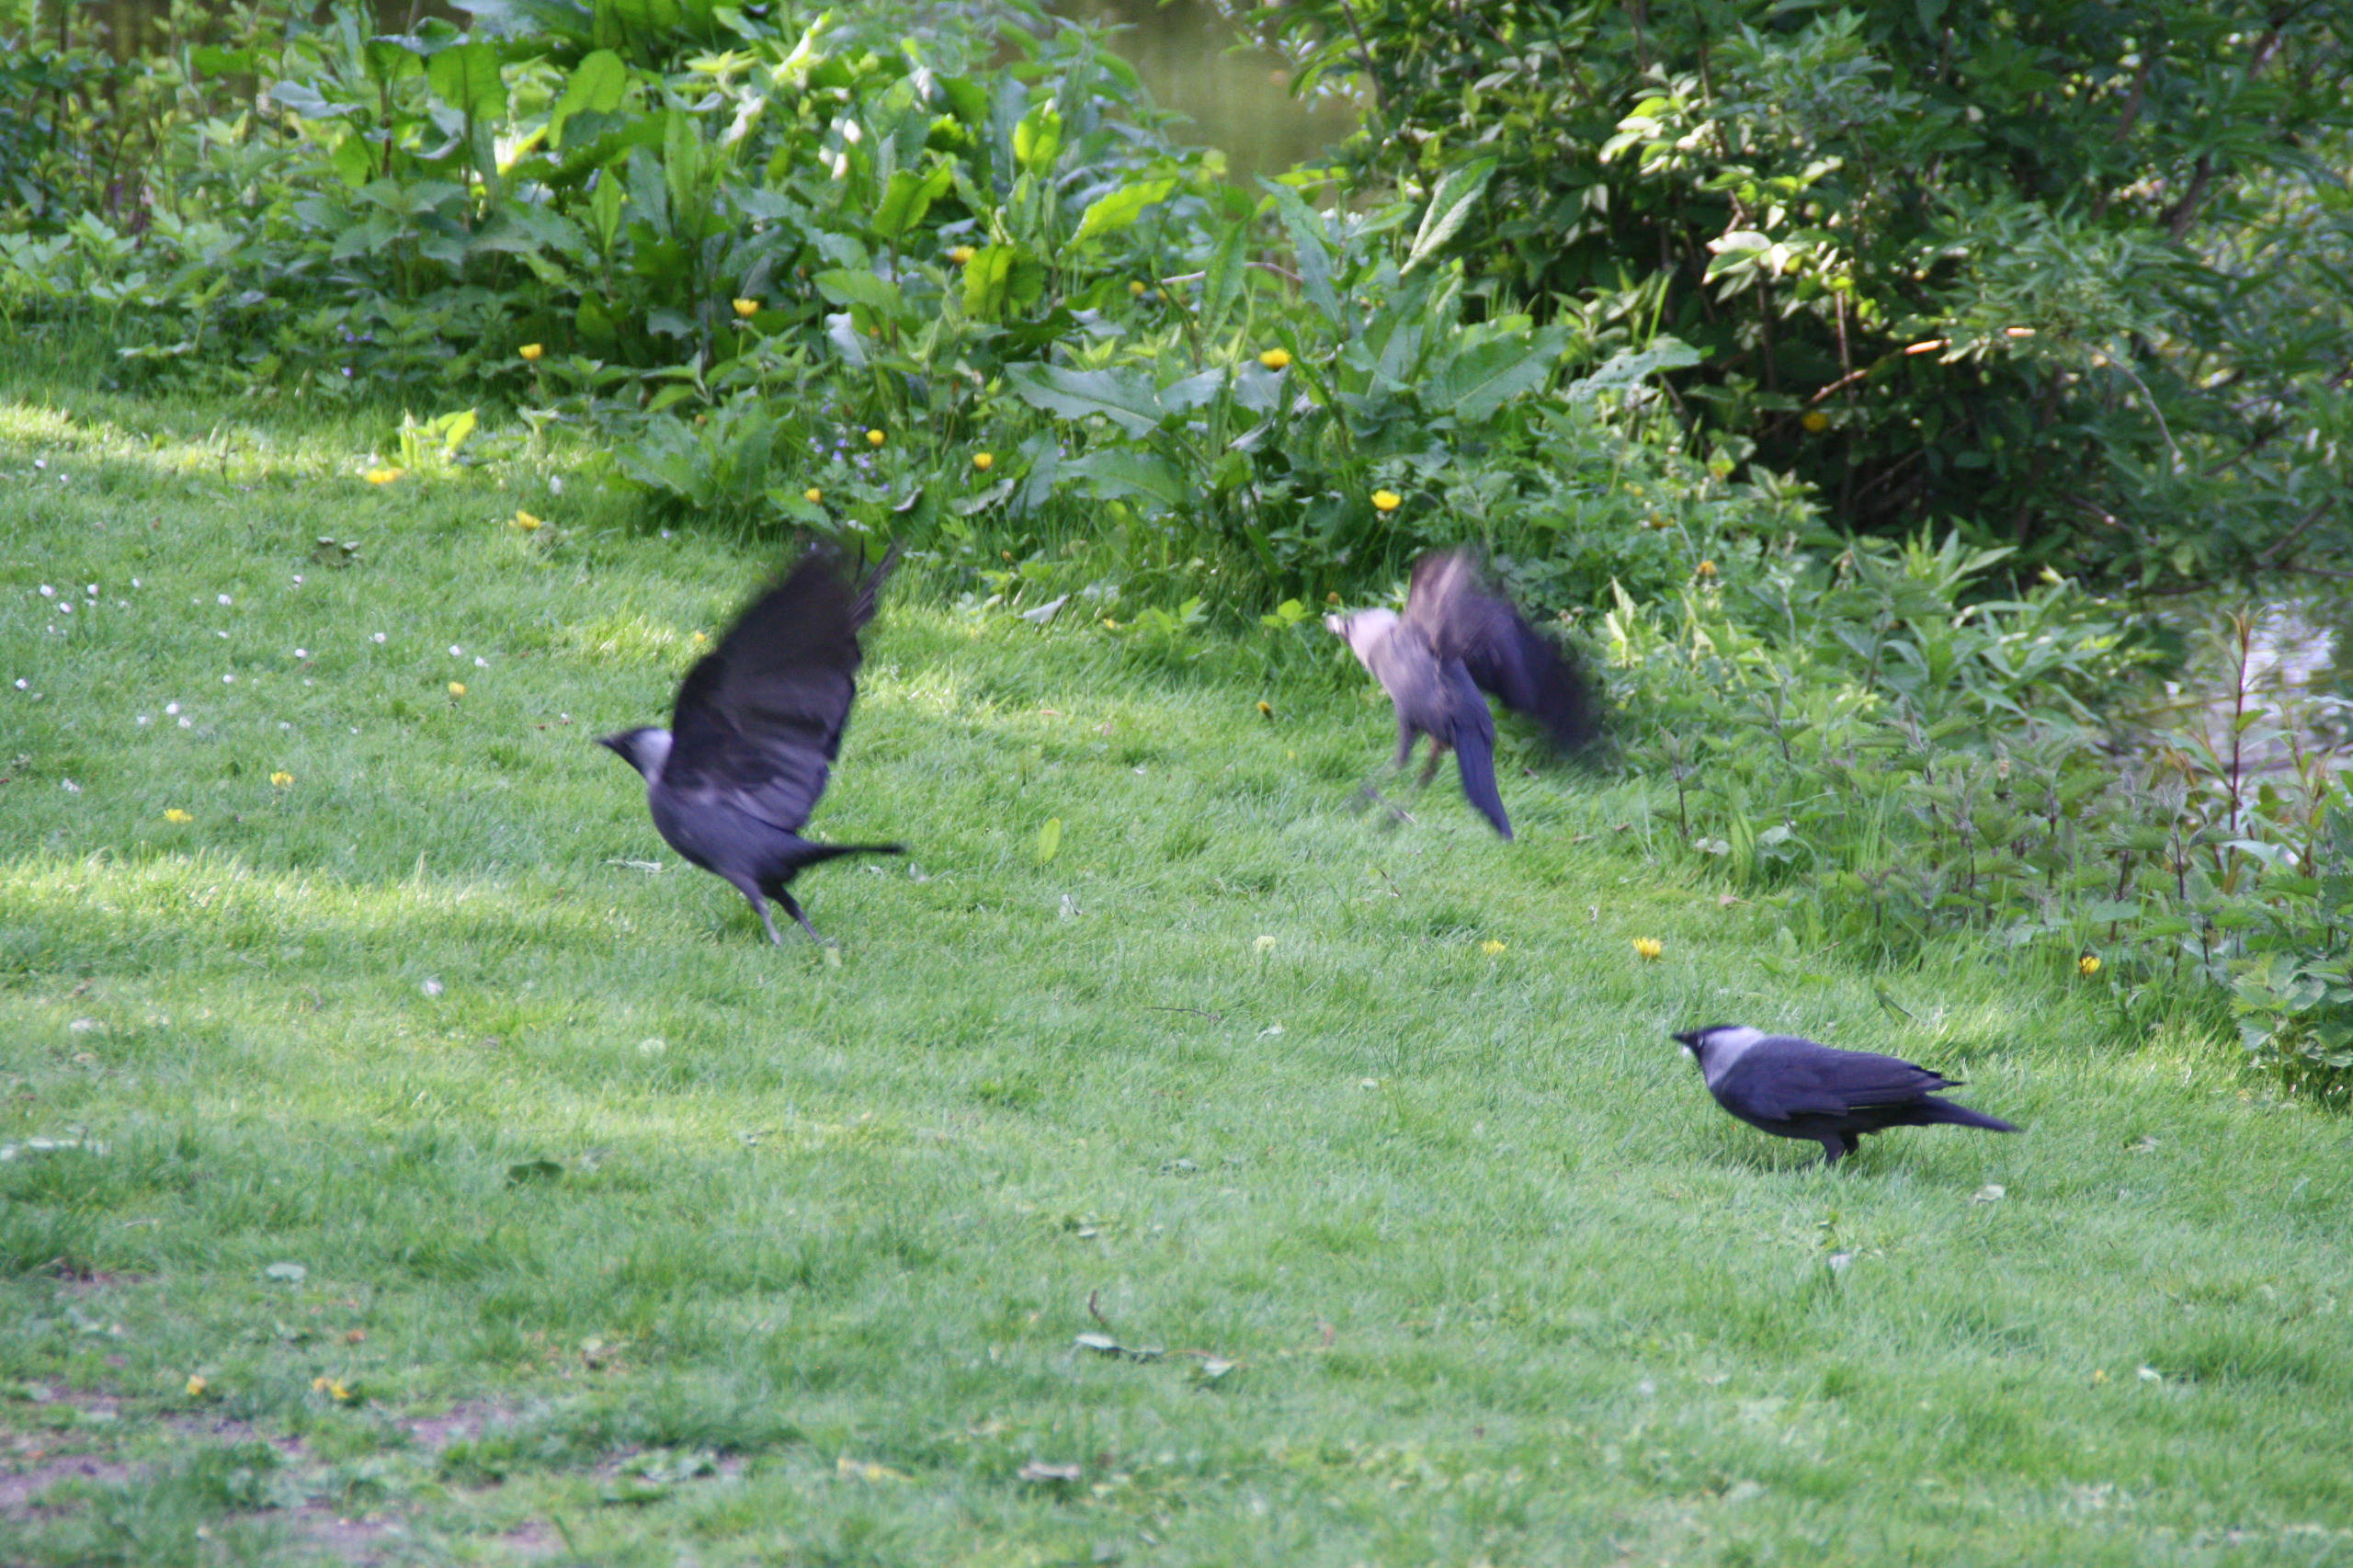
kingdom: Animalia
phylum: Chordata
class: Aves
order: Passeriformes
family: Corvidae
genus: Coloeus
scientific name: Coloeus monedula
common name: Allike
